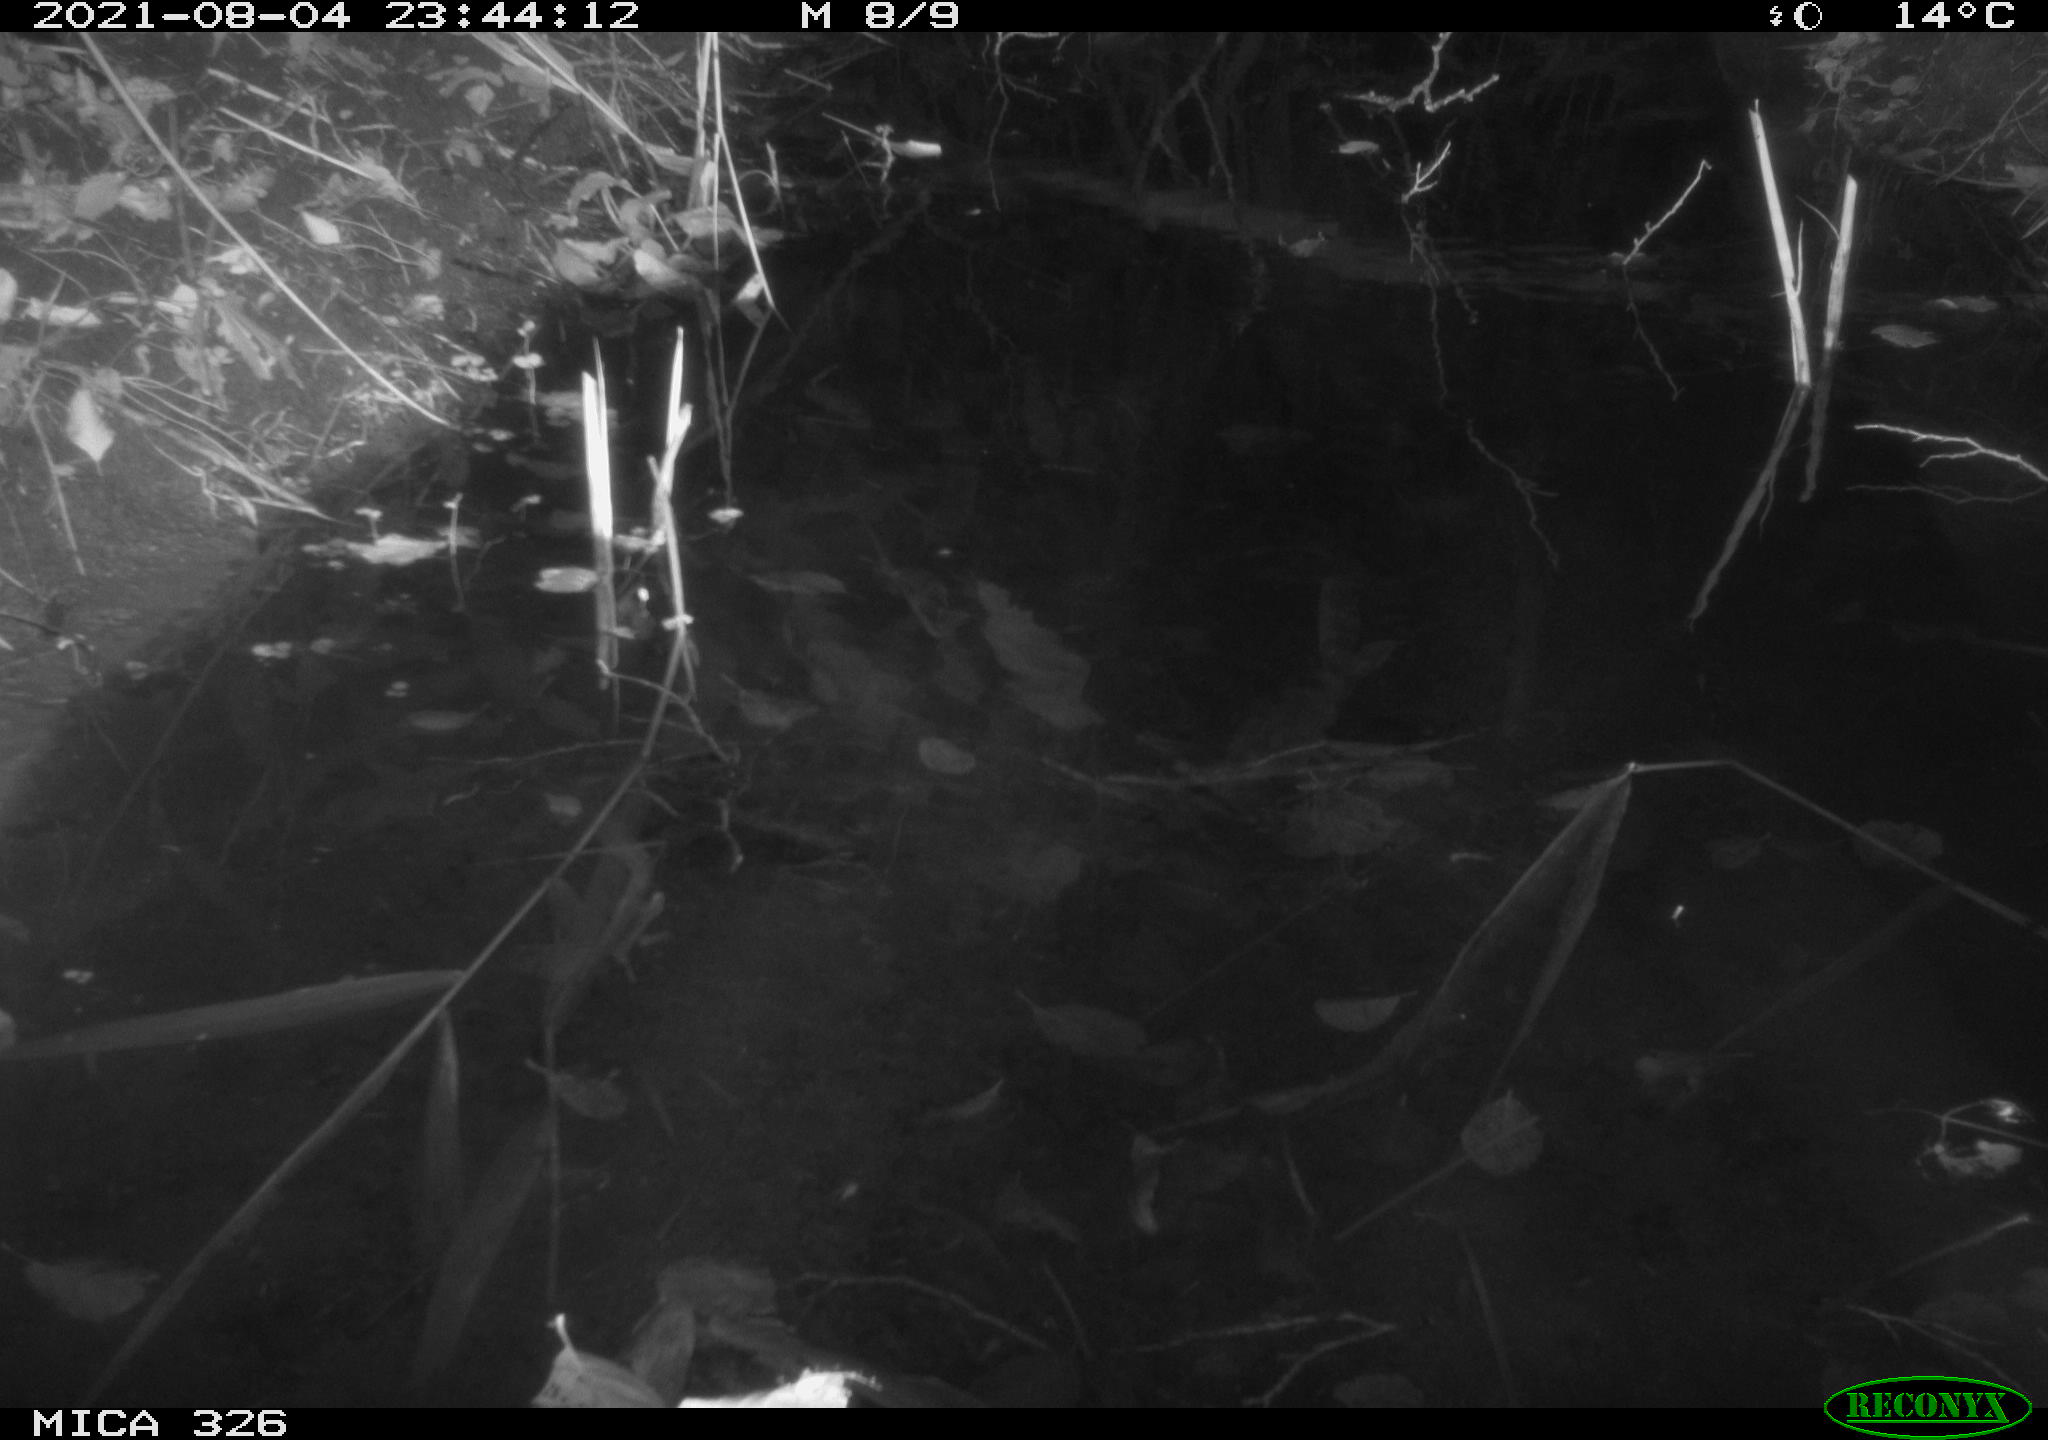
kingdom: Animalia
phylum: Chordata
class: Mammalia
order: Rodentia
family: Muridae
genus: Rattus
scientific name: Rattus norvegicus
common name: Brown rat
